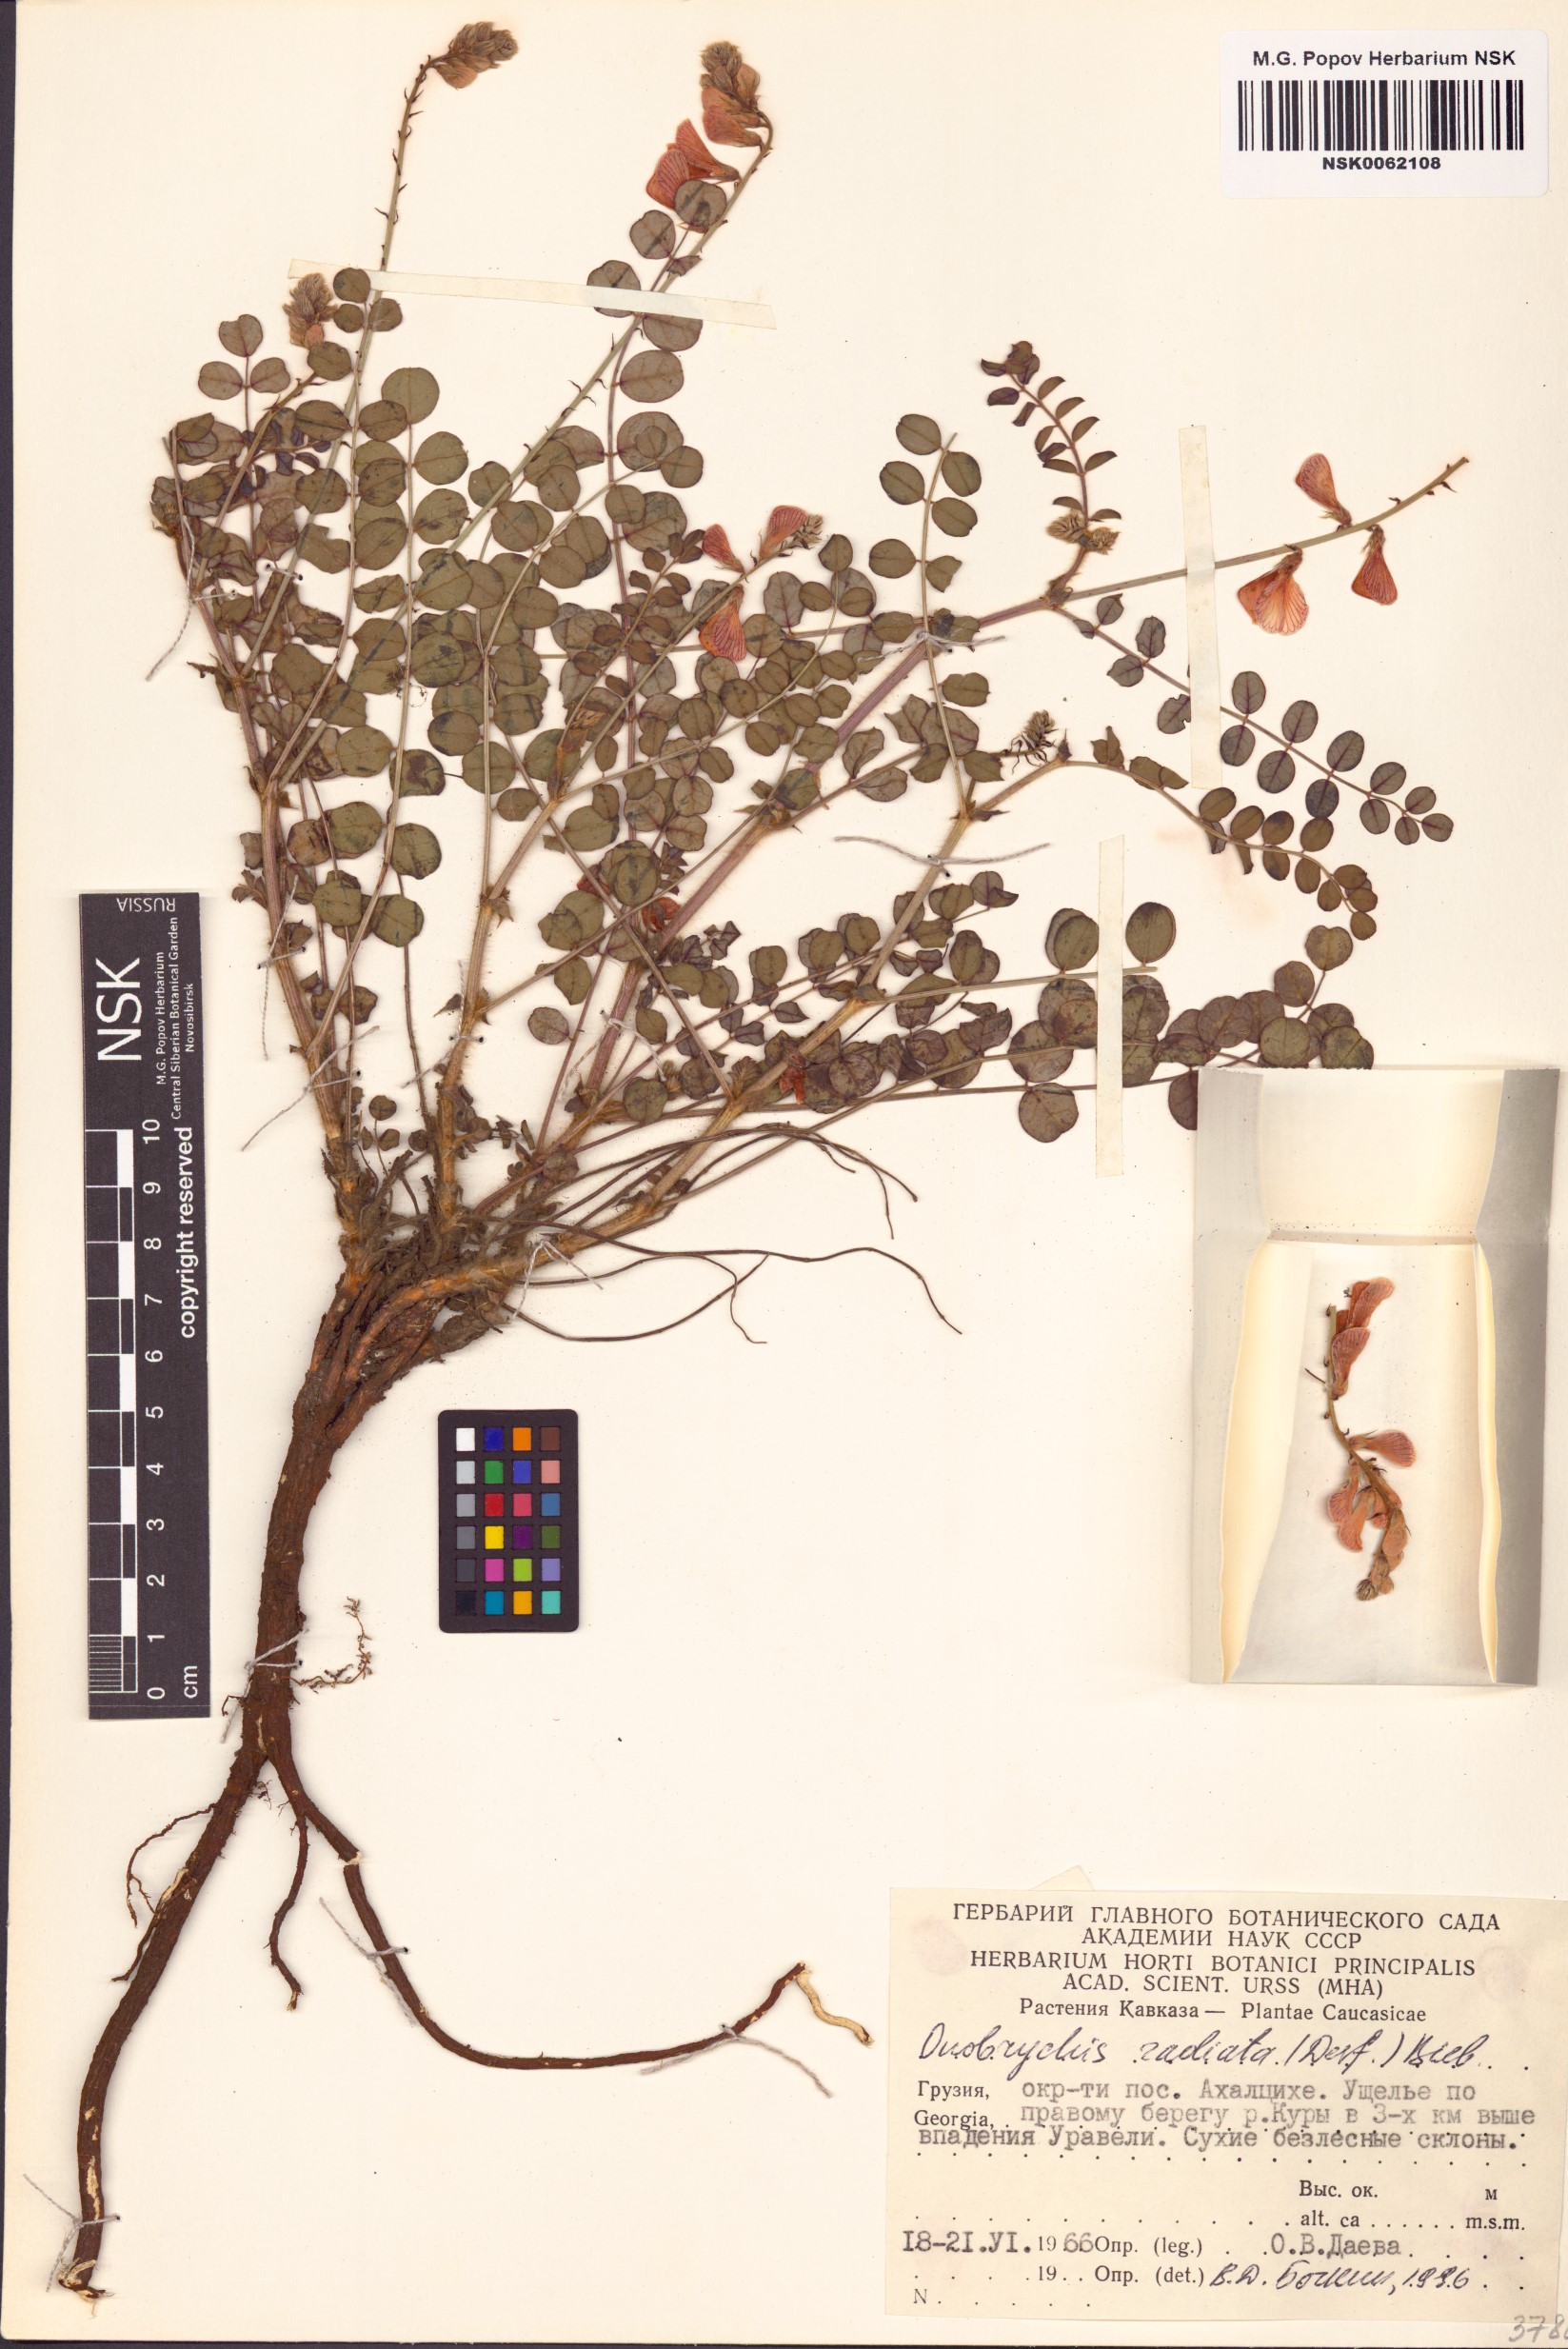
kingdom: Plantae
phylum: Tracheophyta
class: Magnoliopsida
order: Fabales
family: Fabaceae
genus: Onobrychis
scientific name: Onobrychis radiata
